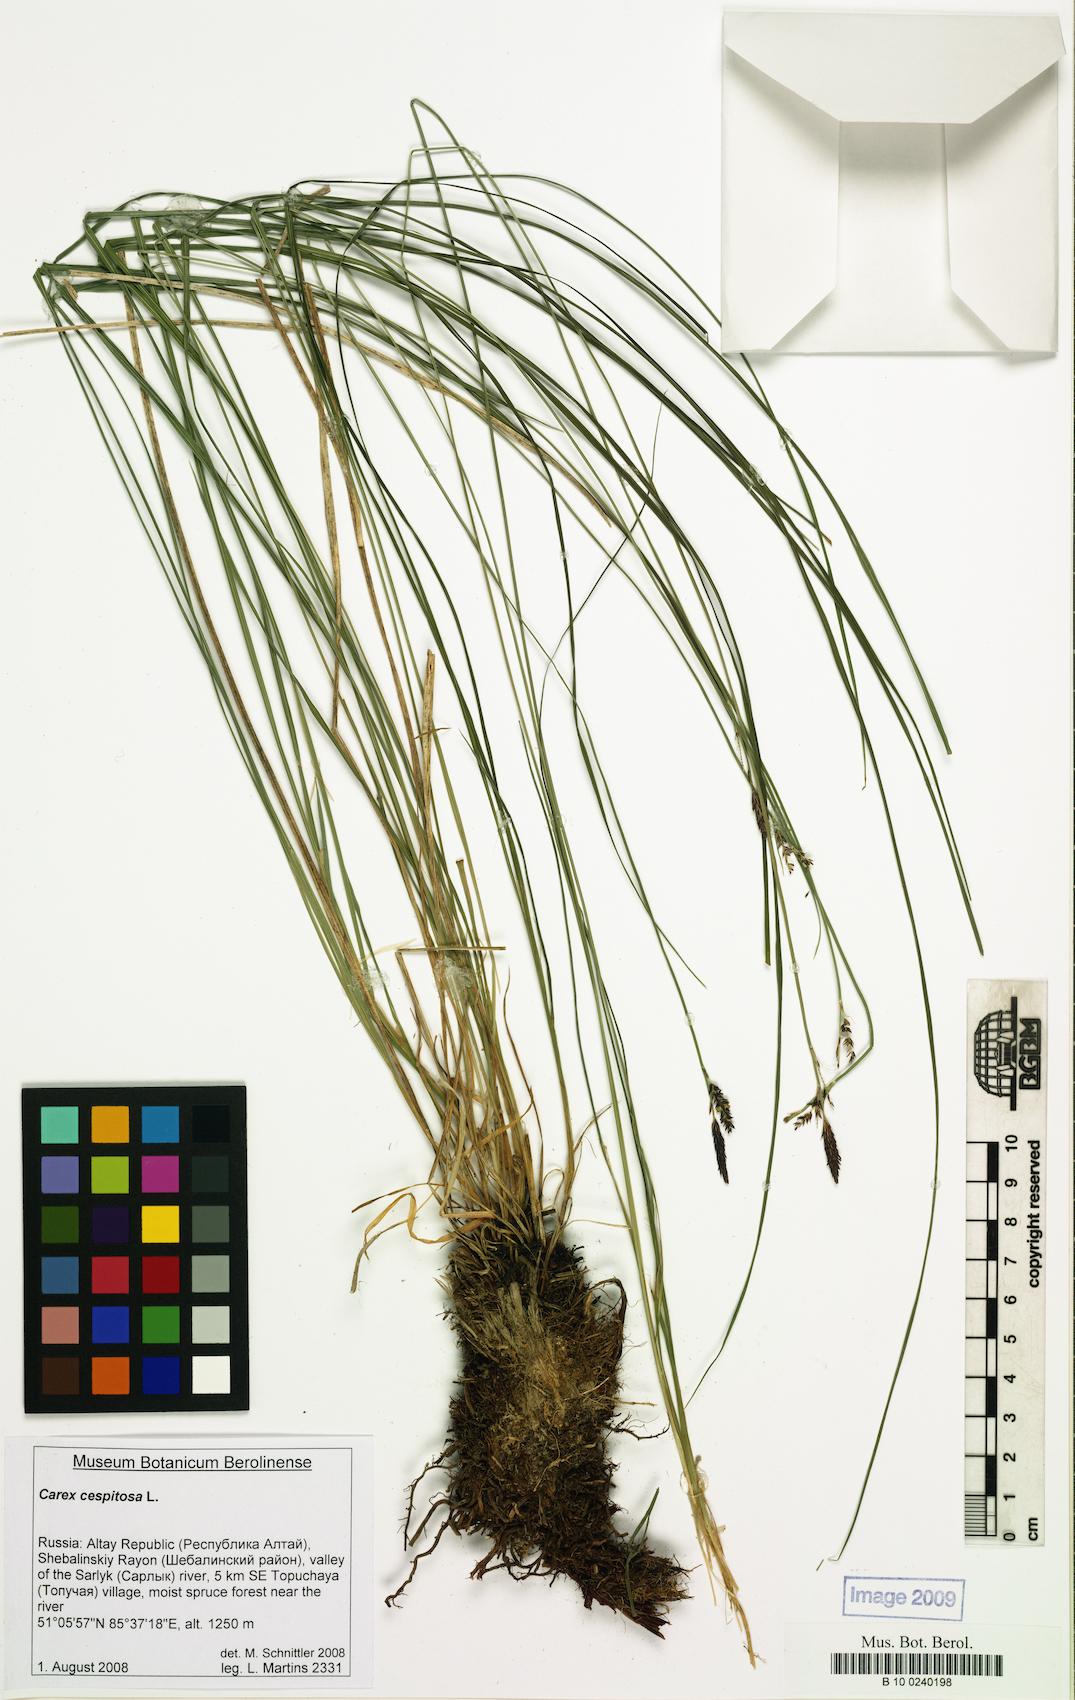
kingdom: Plantae
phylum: Tracheophyta
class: Liliopsida
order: Poales
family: Cyperaceae
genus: Carex
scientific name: Carex cespitosa
